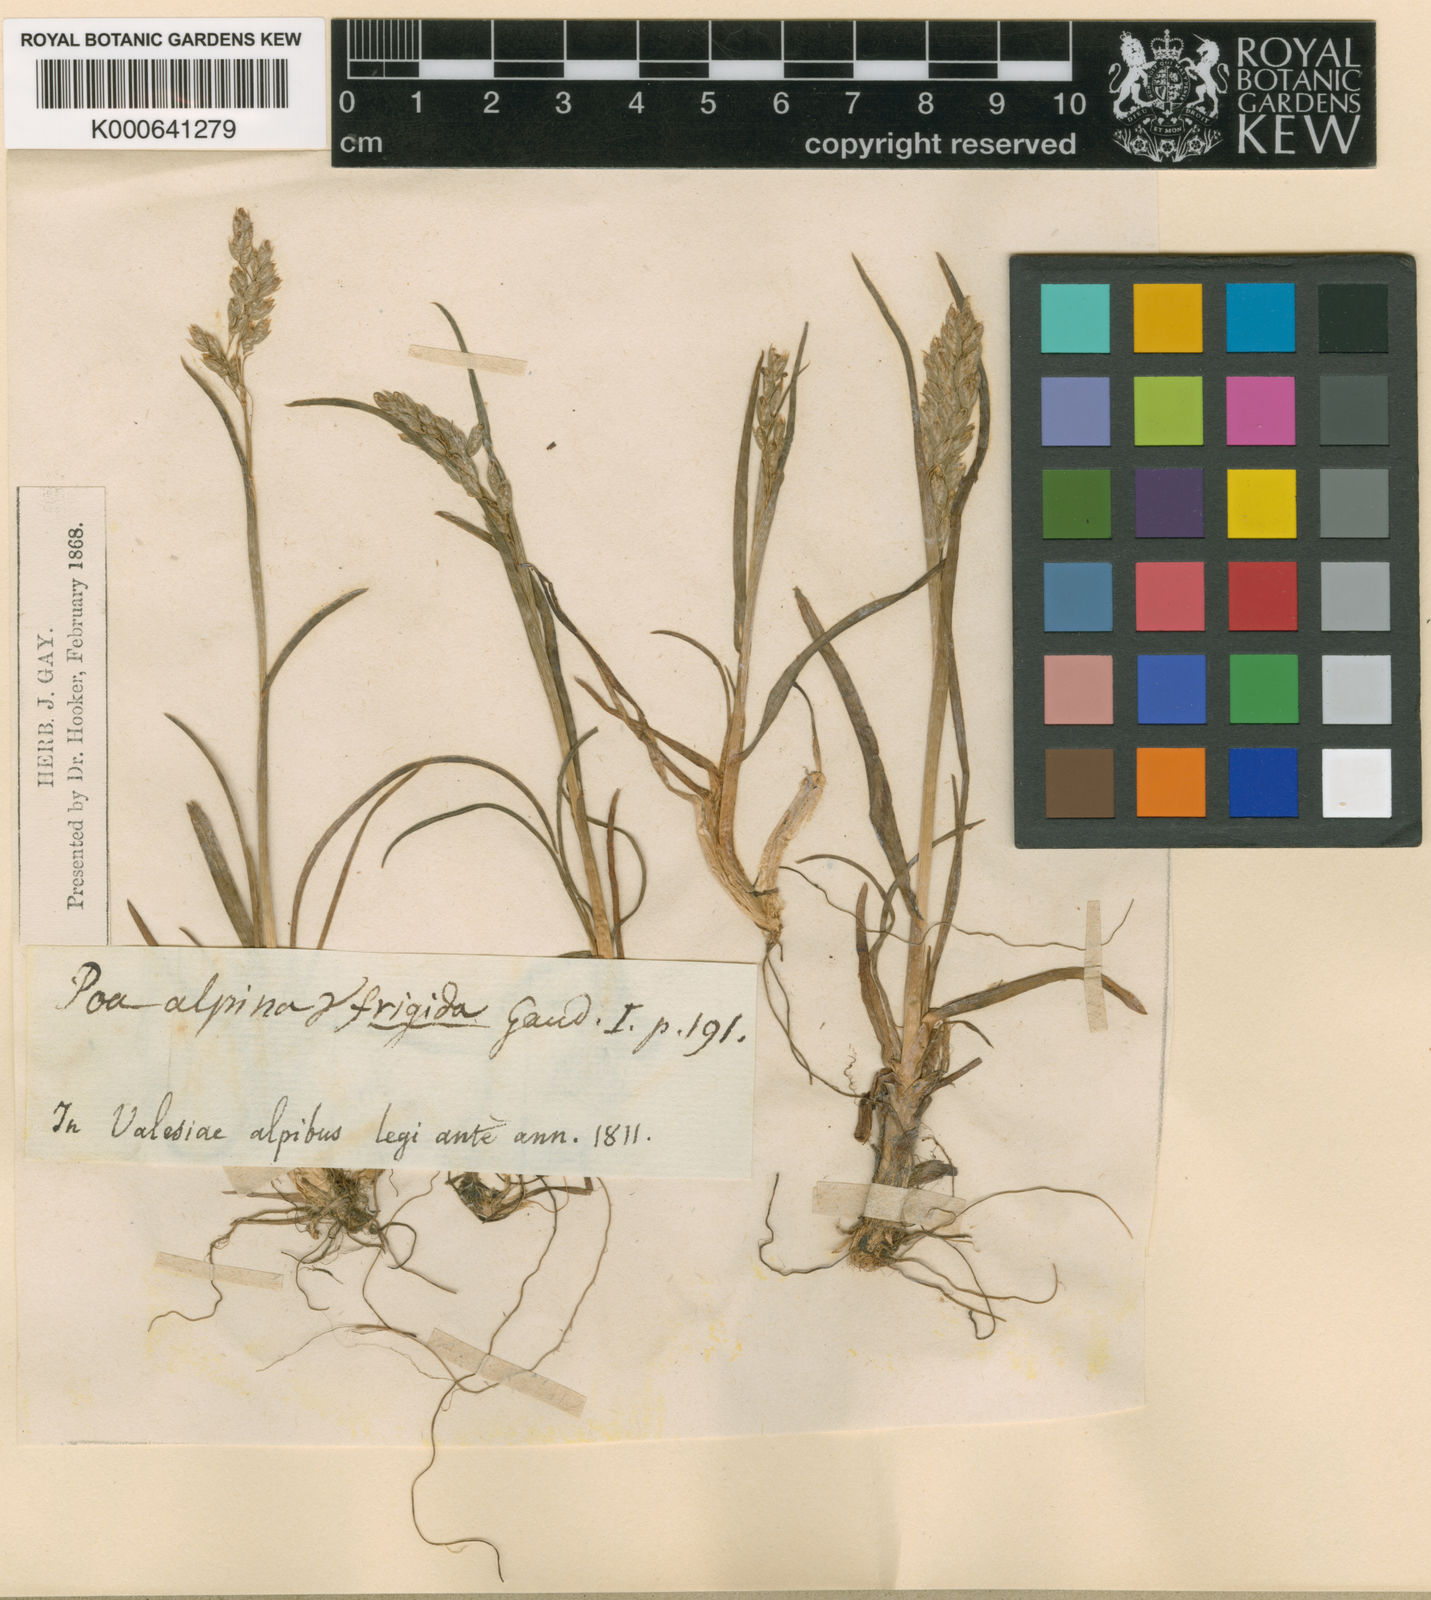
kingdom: Plantae
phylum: Tracheophyta
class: Liliopsida
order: Poales
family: Poaceae
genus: Poa
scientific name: Poa alpina
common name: Alpine bluegrass
